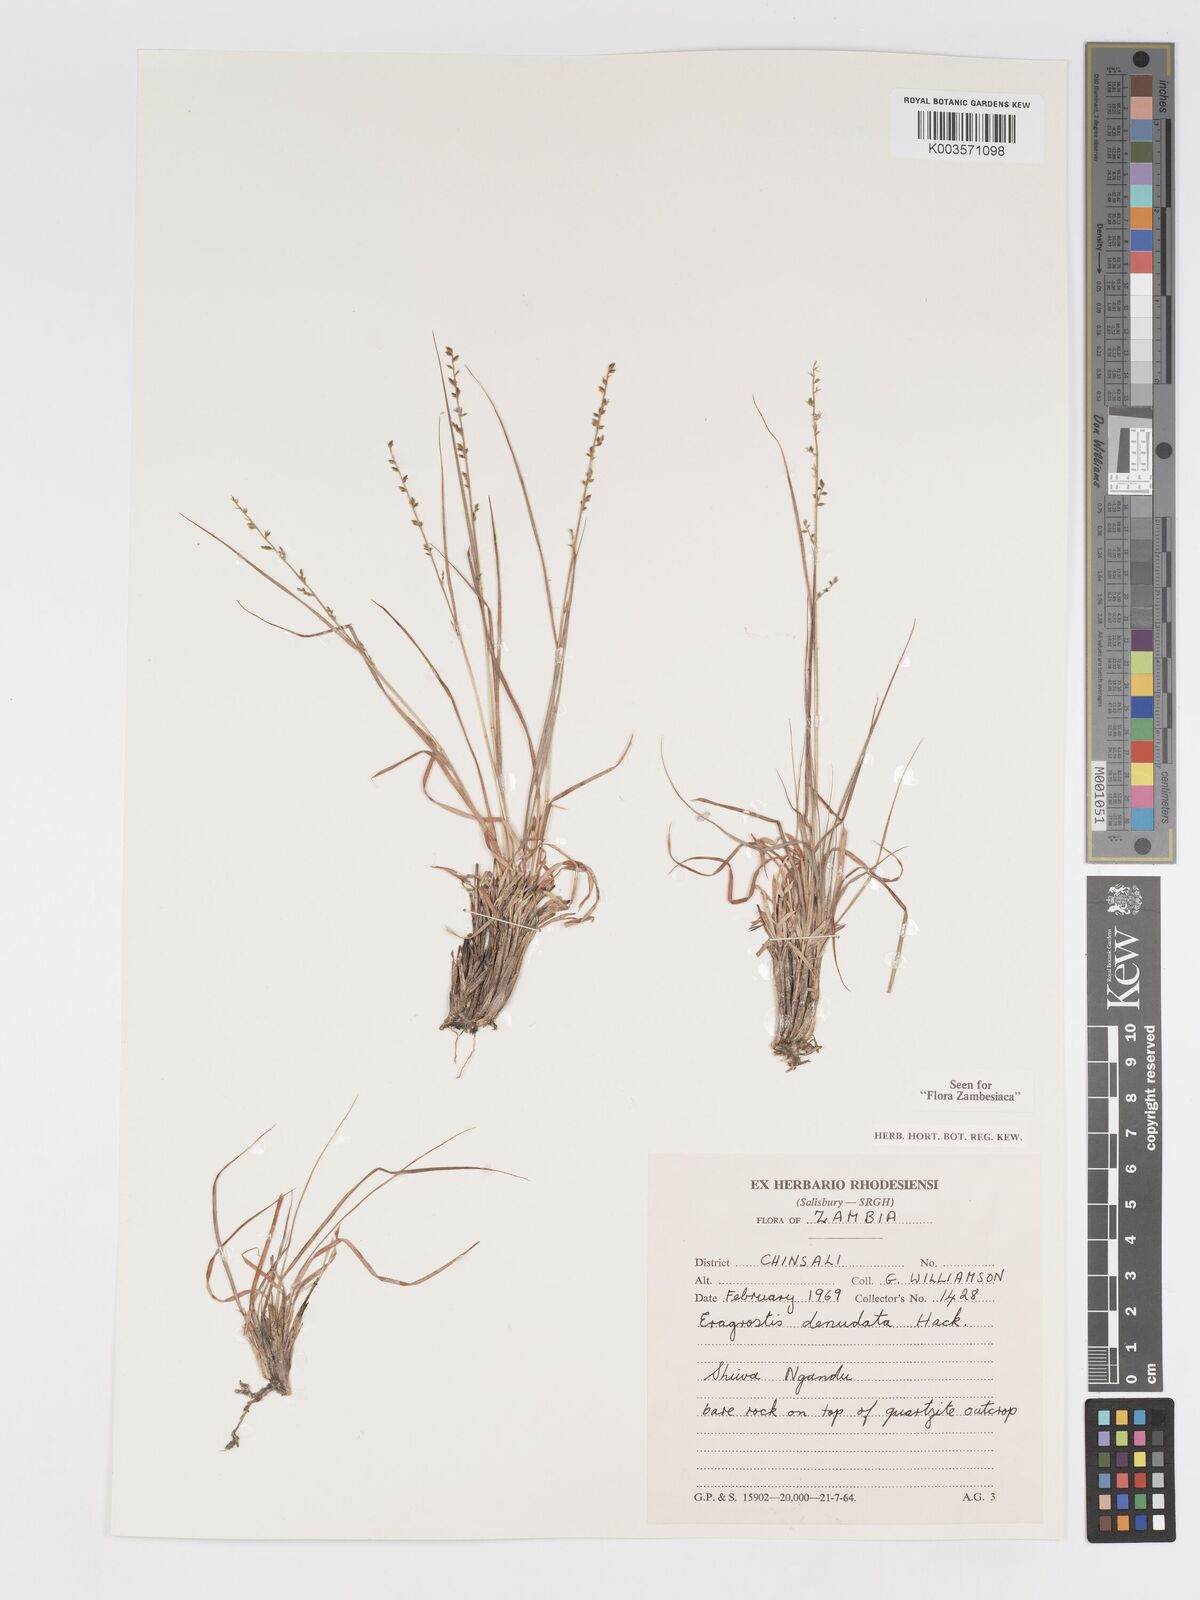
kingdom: Plantae
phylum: Tracheophyta
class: Liliopsida
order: Poales
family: Poaceae
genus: Eragrostis
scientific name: Eragrostis nindensis
